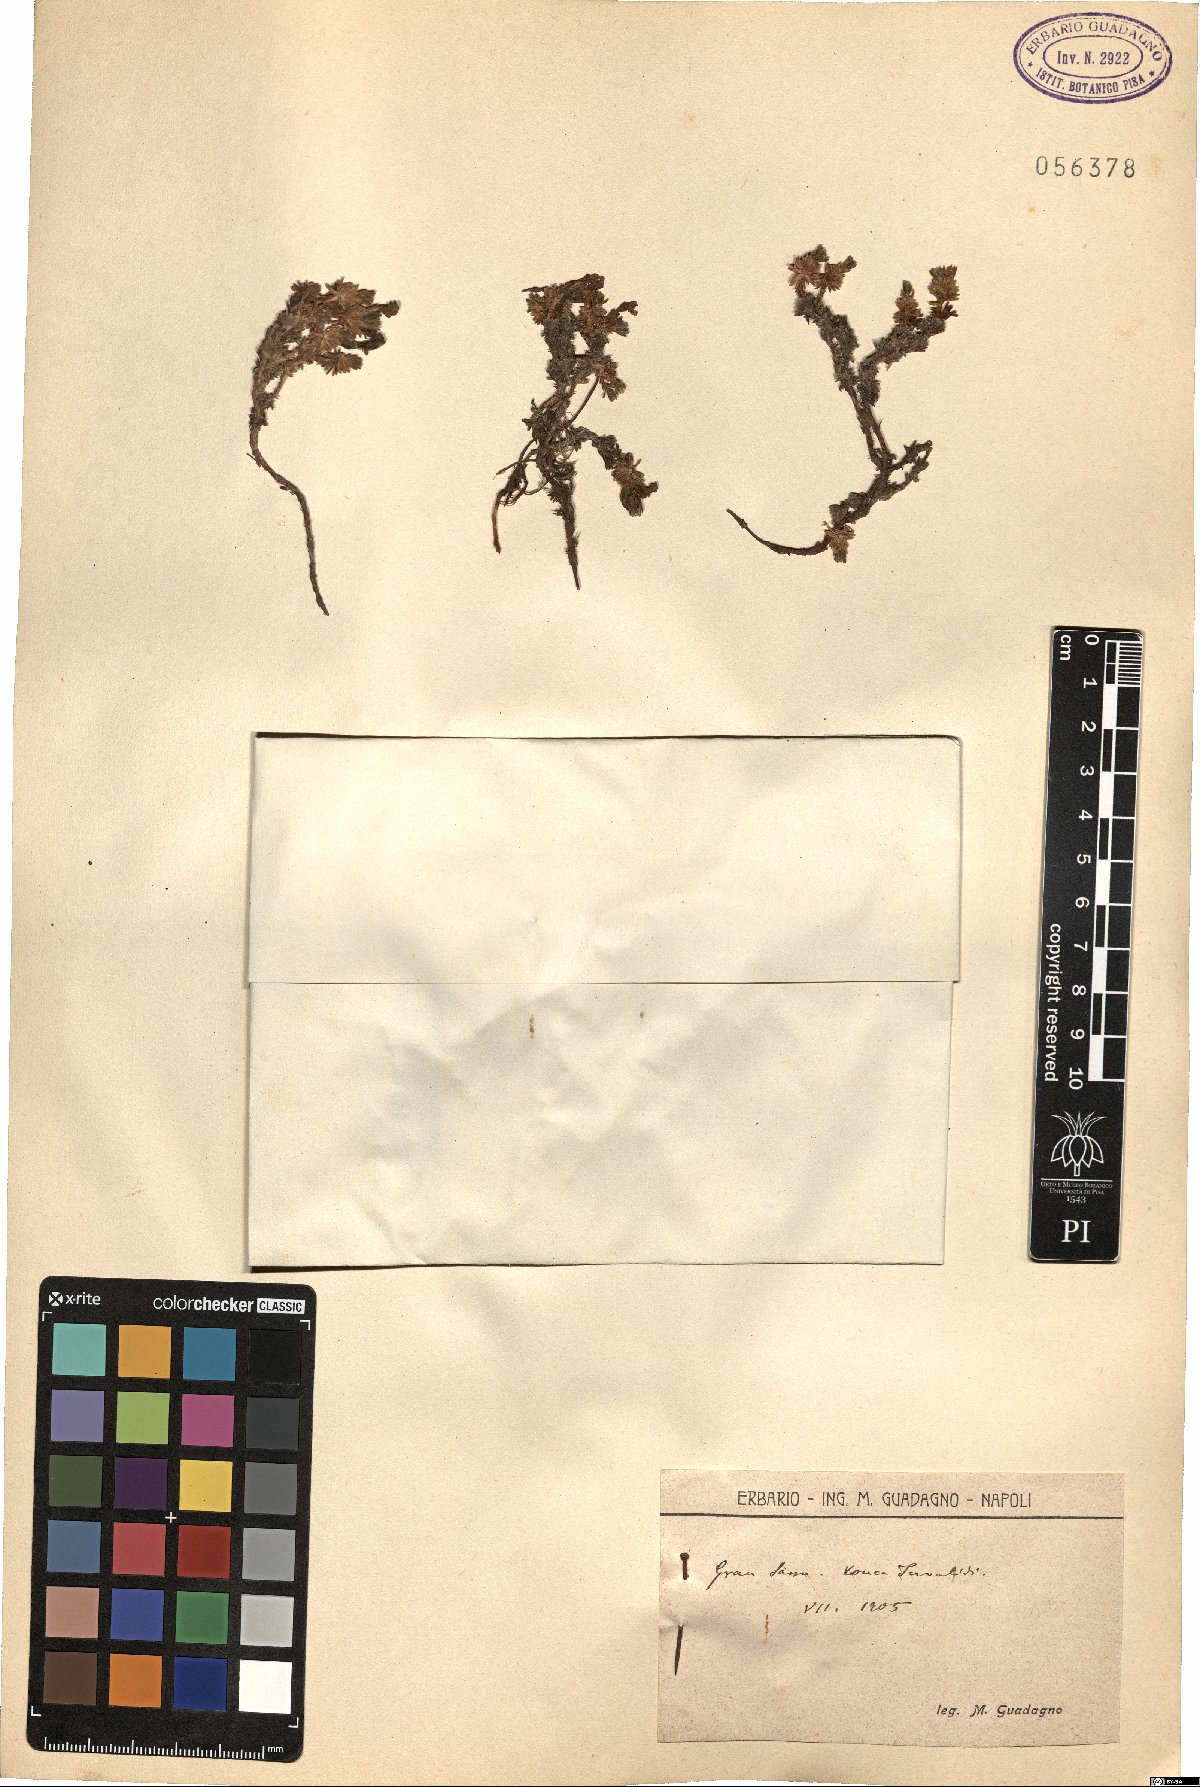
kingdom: Plantae
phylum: Tracheophyta
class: Magnoliopsida
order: Ericales
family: Primulaceae
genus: Androsace
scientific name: Androsace
